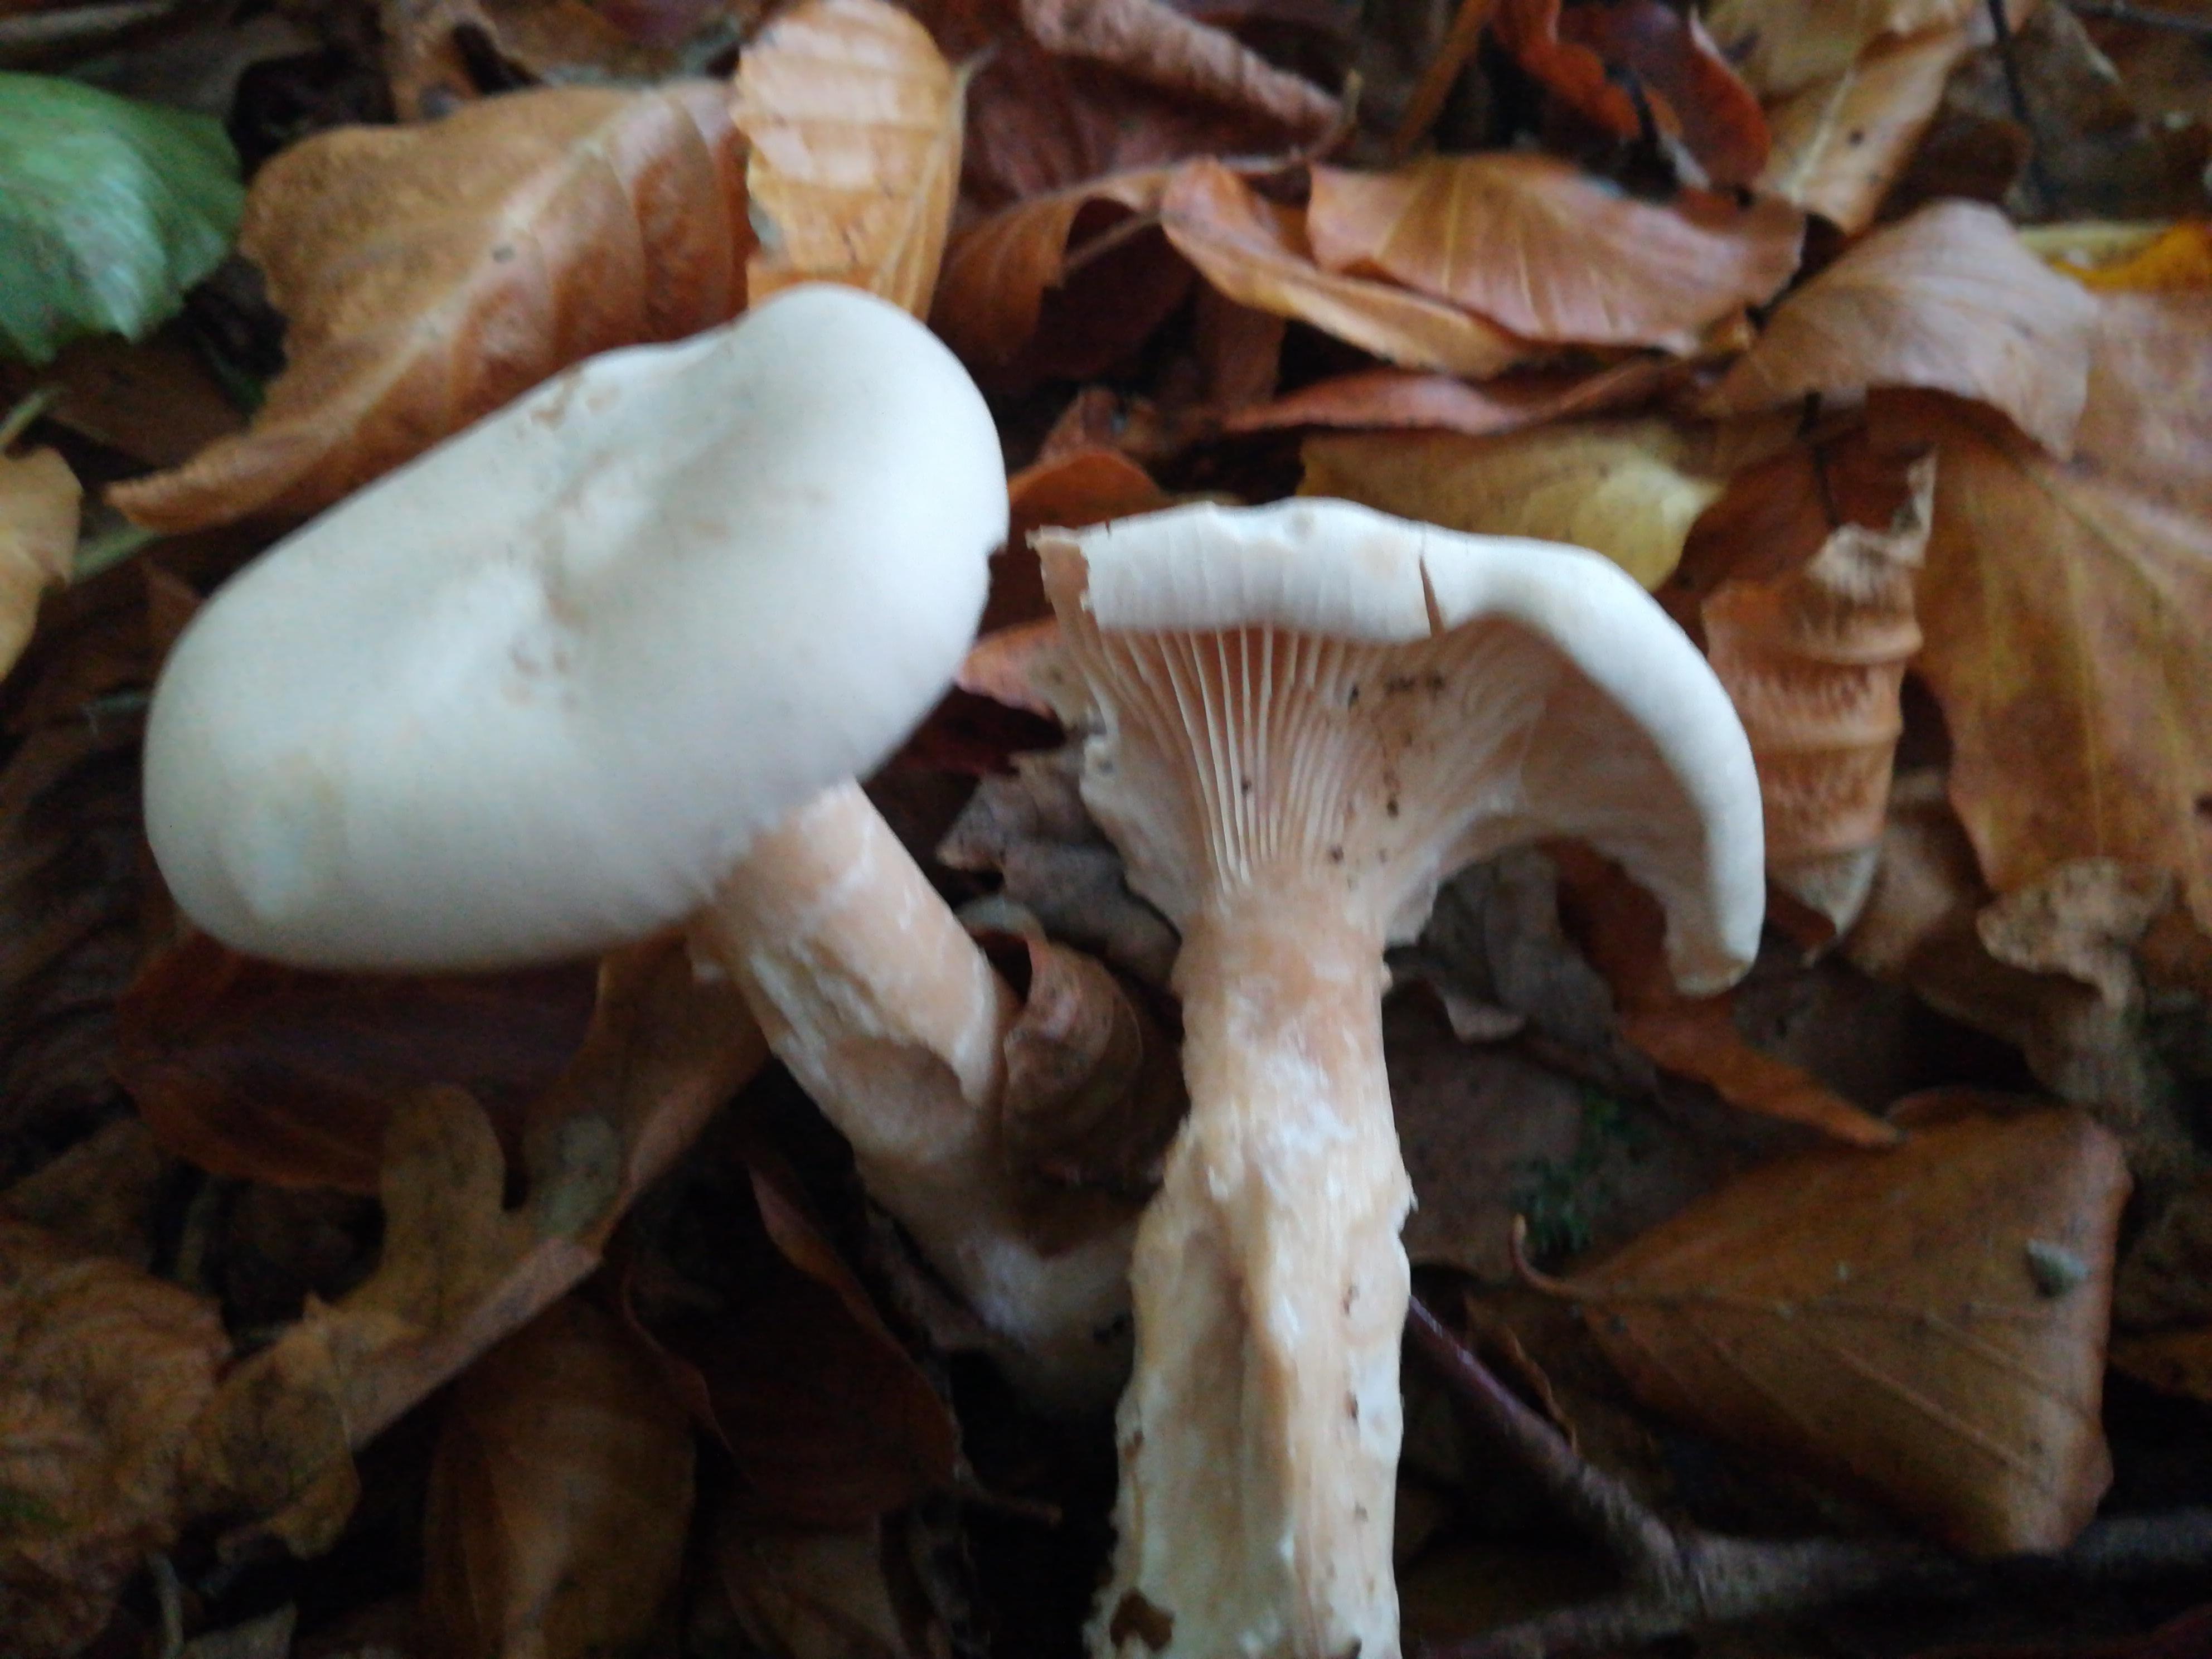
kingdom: Fungi
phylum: Basidiomycota
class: Agaricomycetes
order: Agaricales
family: Tricholomataceae
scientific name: Tricholomataceae
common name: ridderhatfamilien
